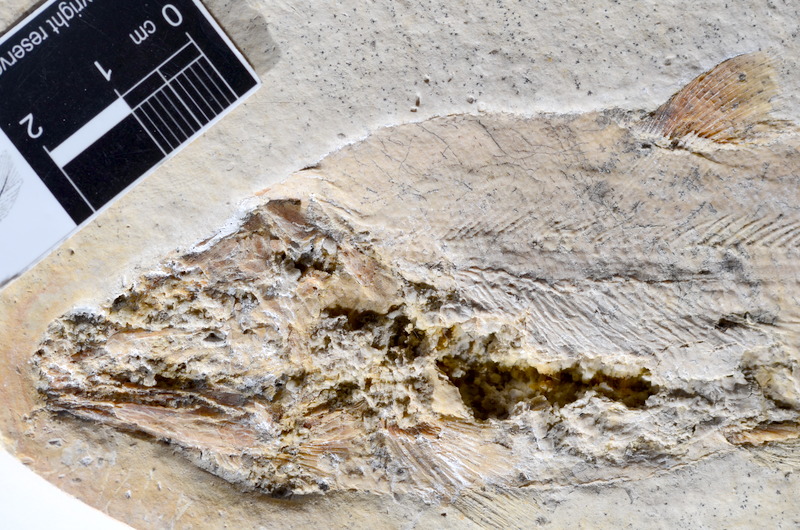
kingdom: Animalia
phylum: Chordata
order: Amiiformes
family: Caturidae
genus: Caturus
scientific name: Caturus furcatus
